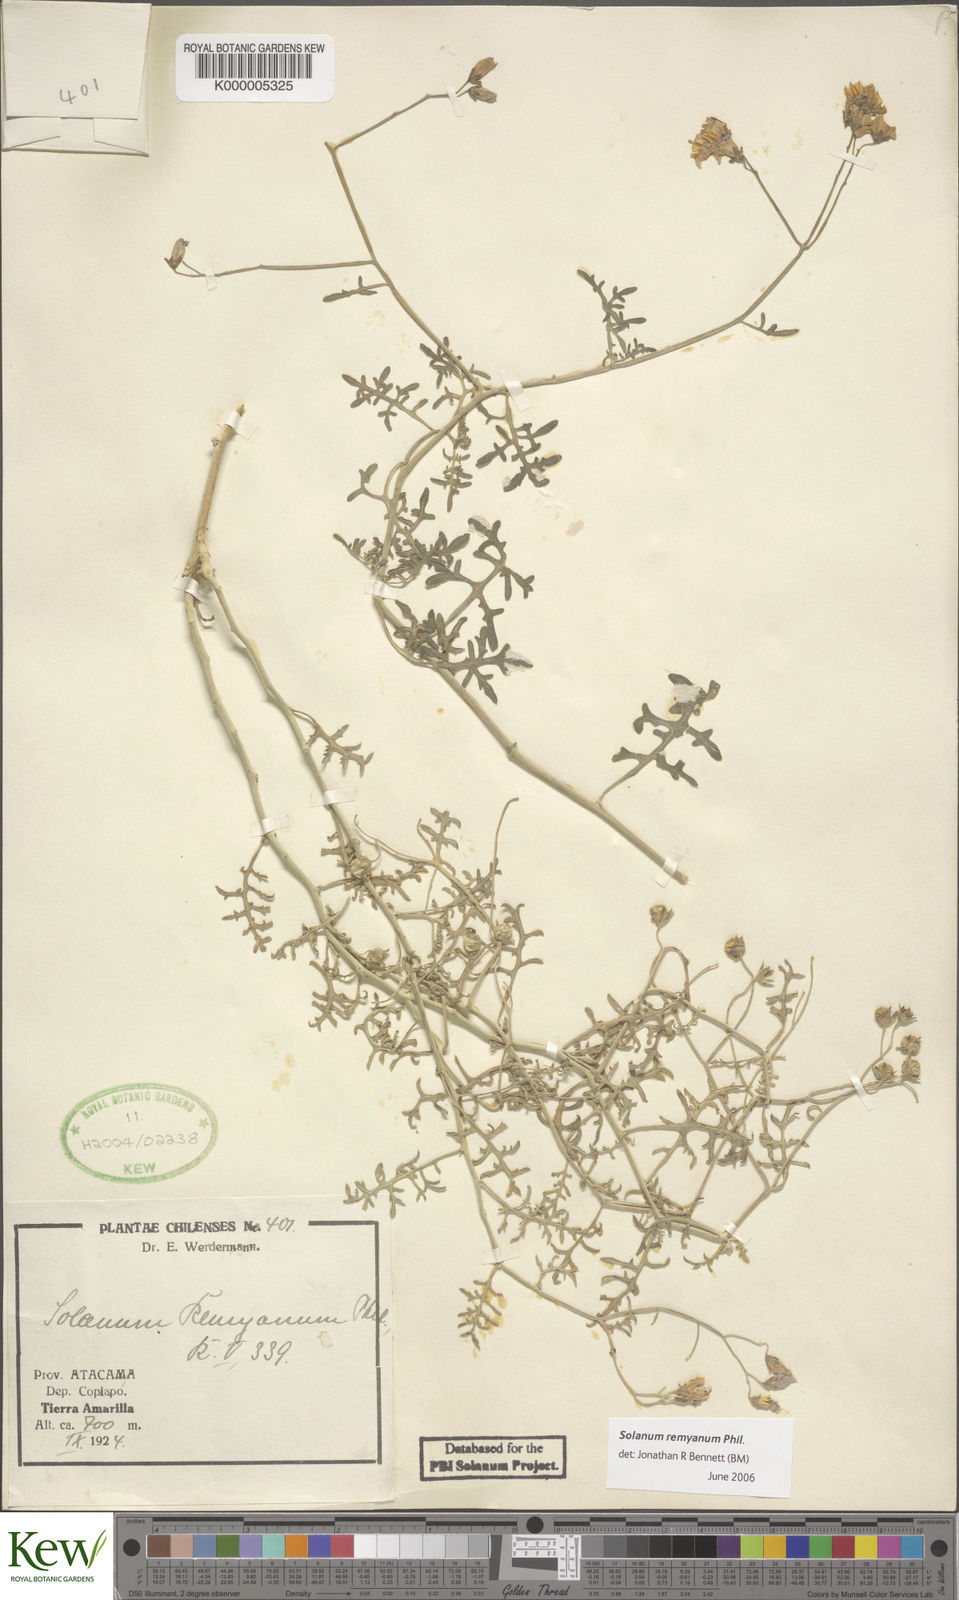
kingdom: Plantae
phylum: Tracheophyta
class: Magnoliopsida
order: Solanales
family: Solanaceae
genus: Solanum
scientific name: Solanum remyanum
